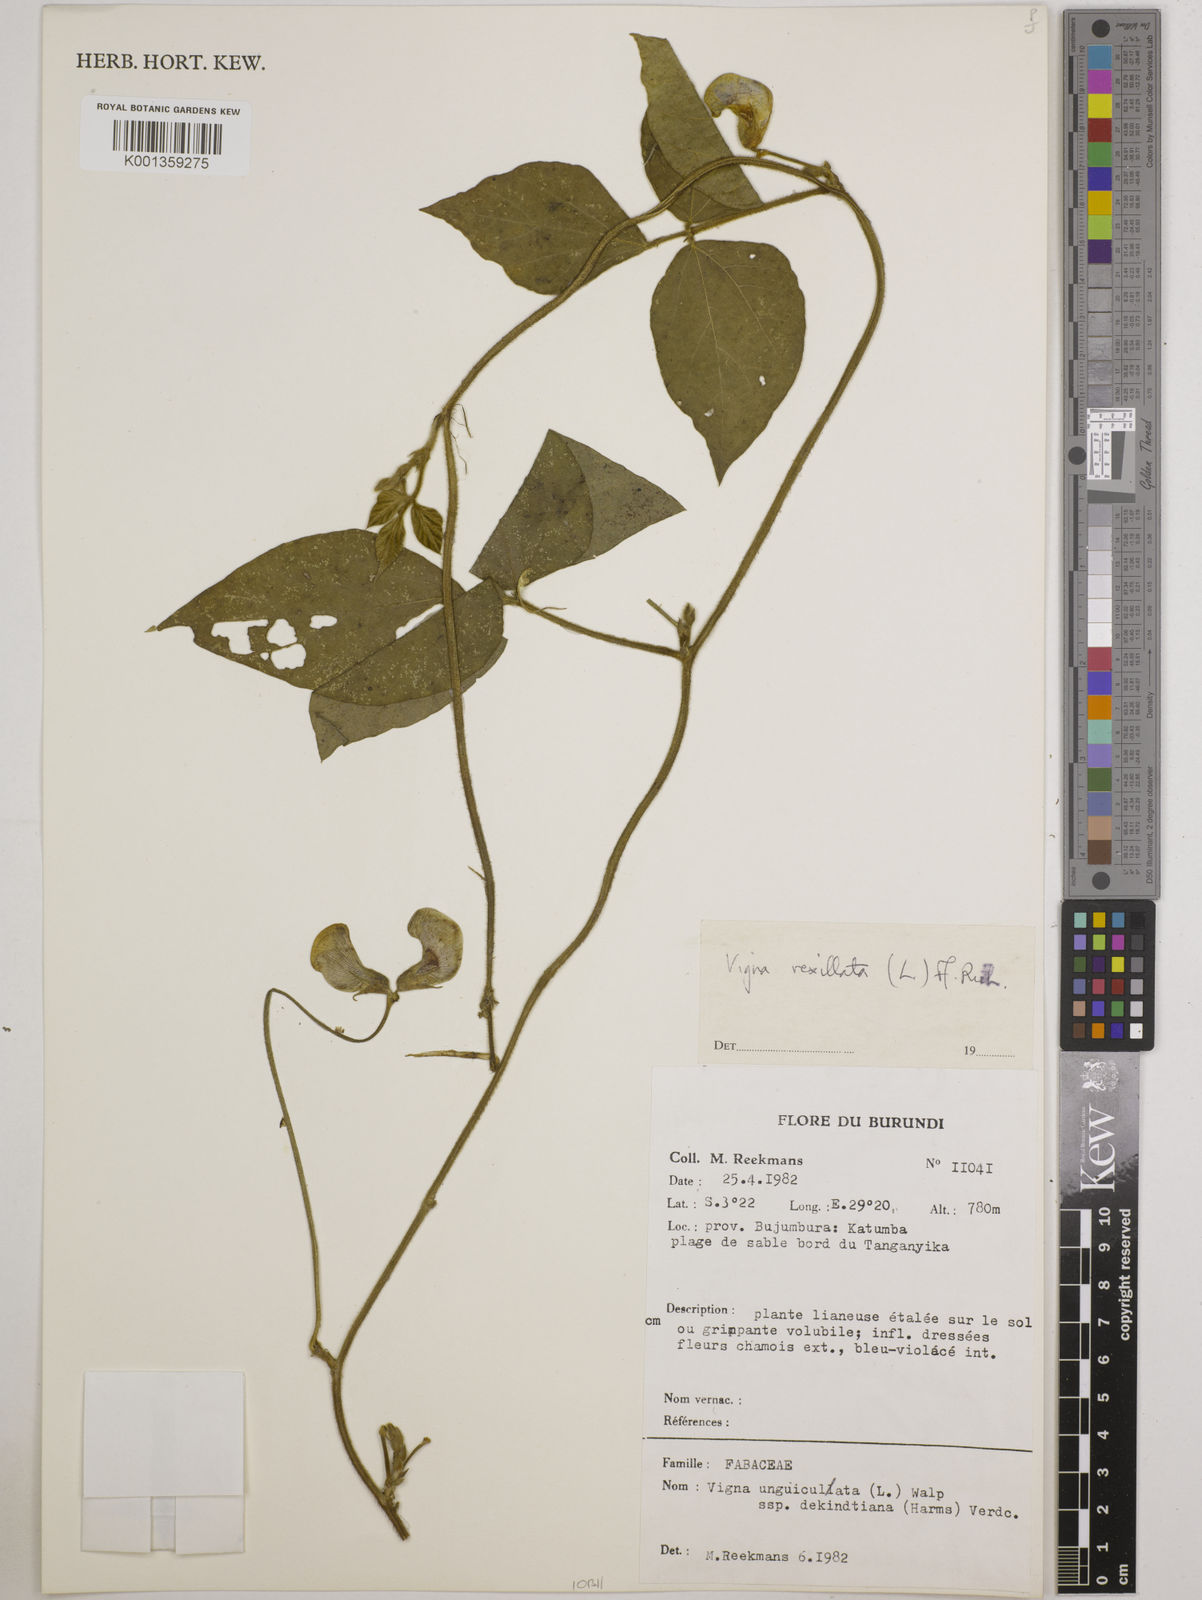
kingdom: Plantae
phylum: Tracheophyta
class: Magnoliopsida
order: Fabales
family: Fabaceae
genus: Vigna
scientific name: Vigna vexillata
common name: Zombi pea
